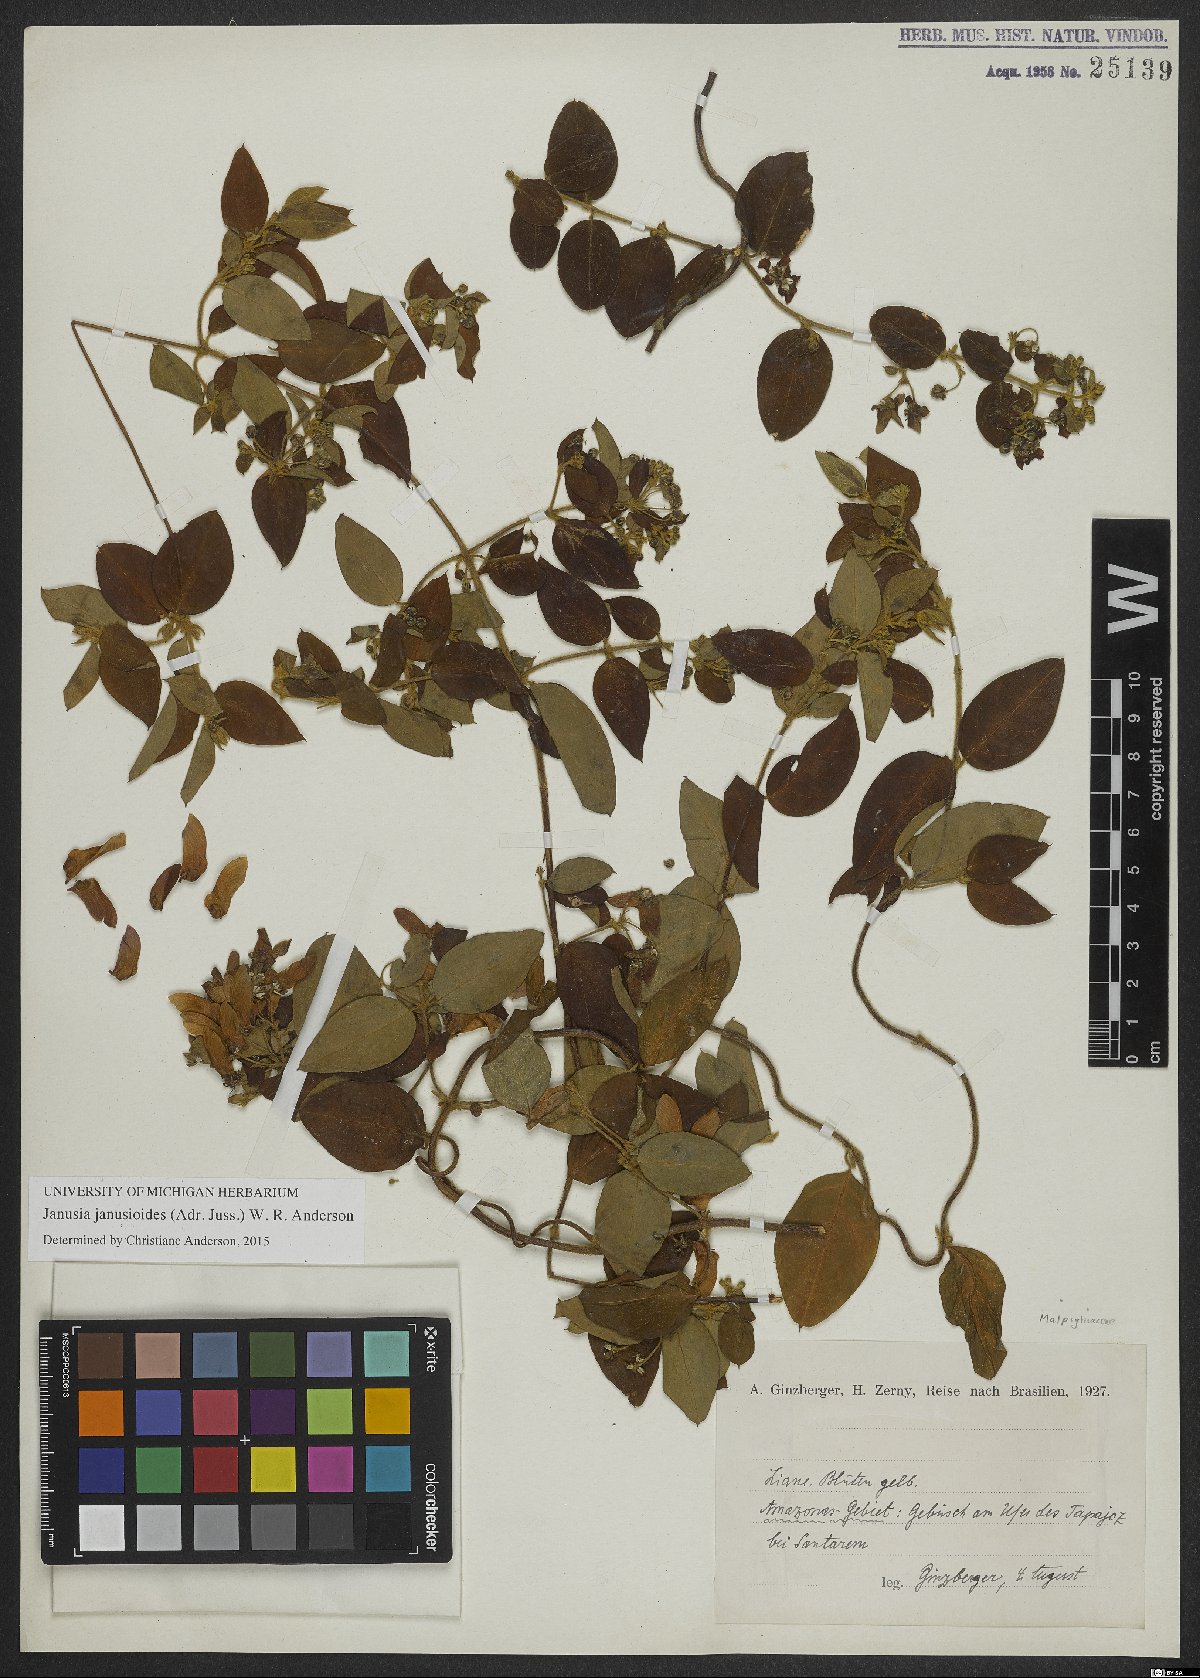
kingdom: Plantae
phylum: Tracheophyta
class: Magnoliopsida
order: Malpighiales
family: Malpighiaceae
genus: Janusia
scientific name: Janusia janusioides
